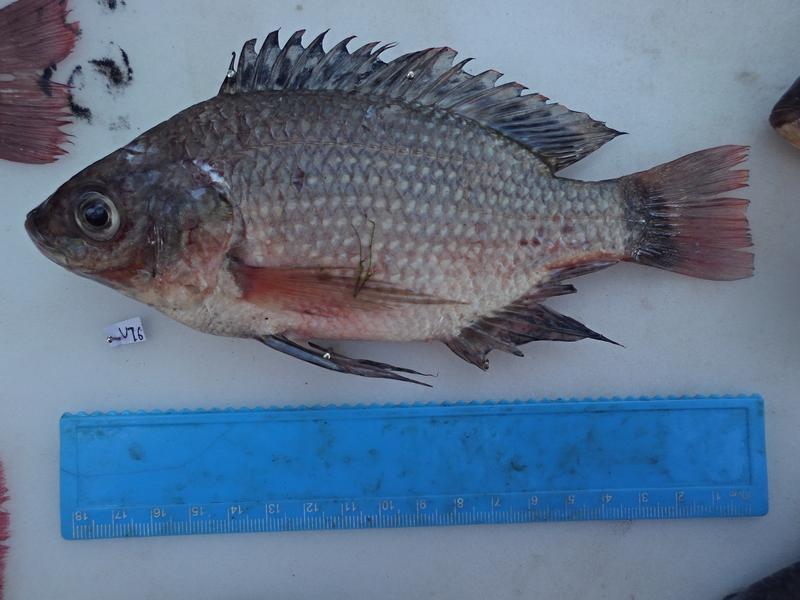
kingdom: Animalia
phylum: Chordata
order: Perciformes
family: Cichlidae
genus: Oreochromis
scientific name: Oreochromis esculentus
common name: Carp
